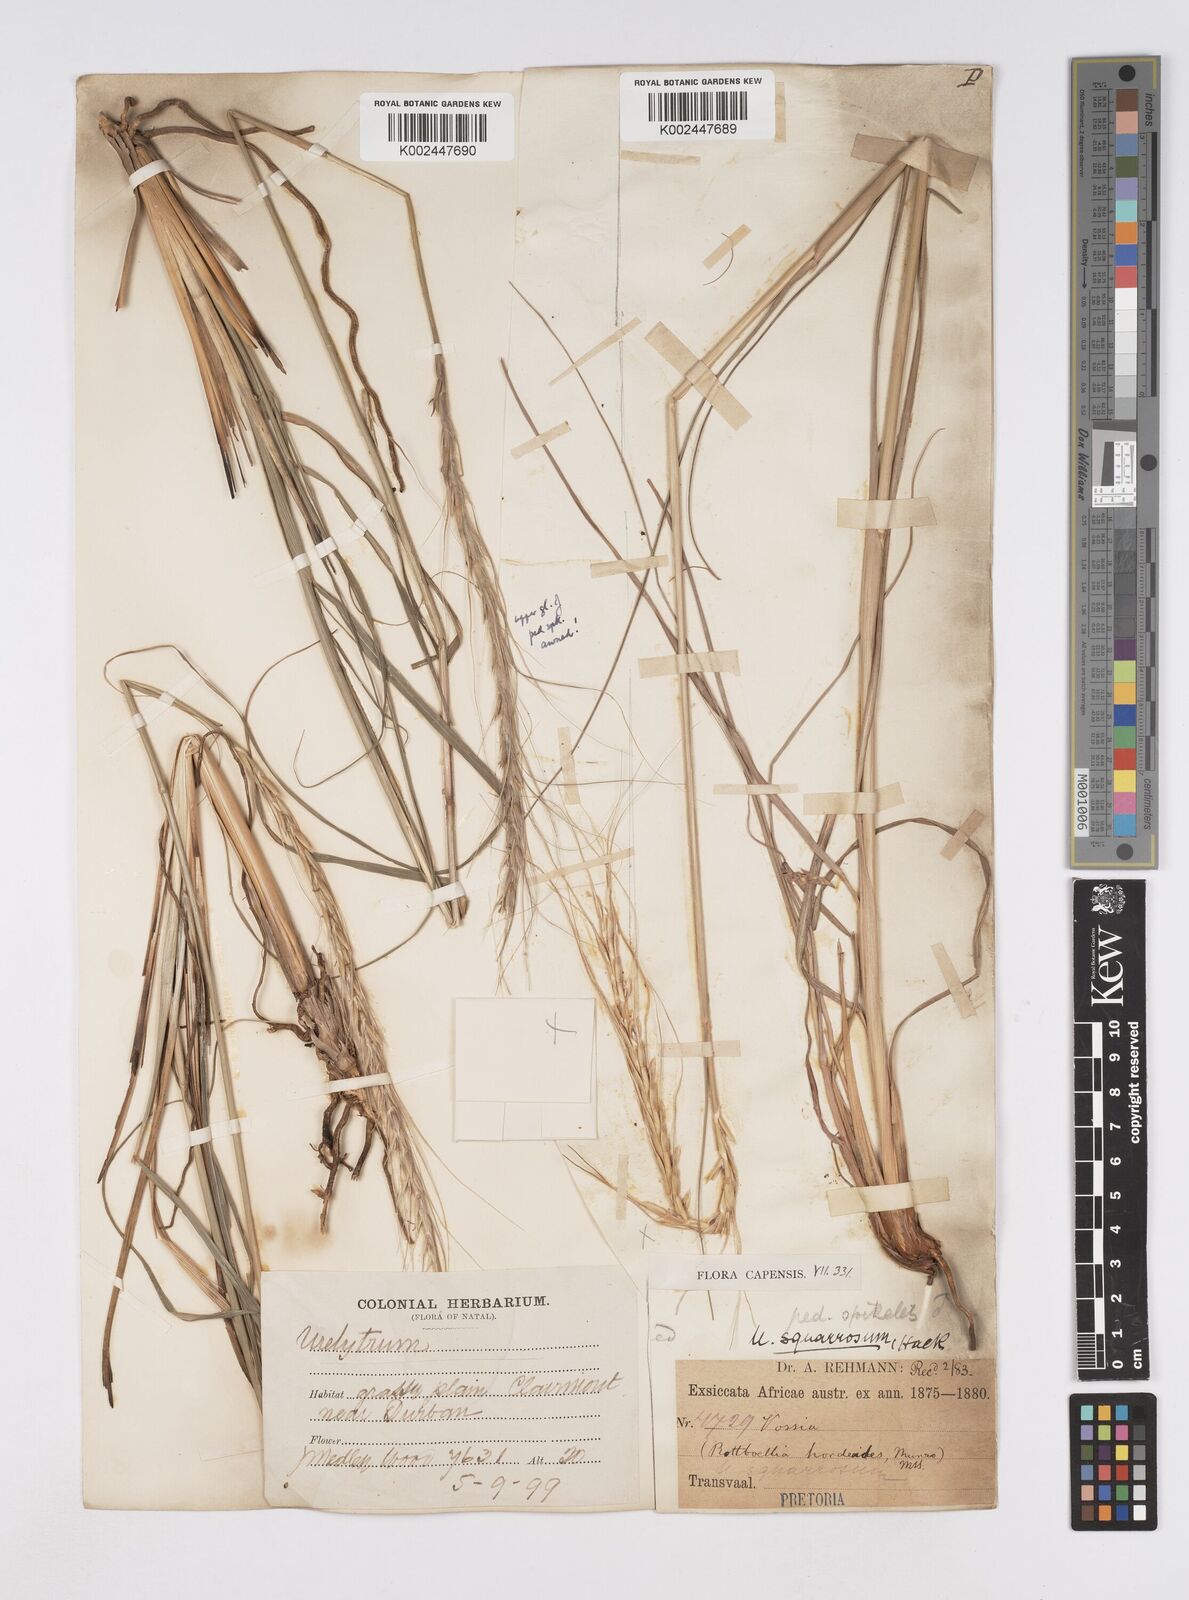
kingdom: Plantae
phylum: Tracheophyta
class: Liliopsida
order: Poales
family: Poaceae
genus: Urelytrum
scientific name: Urelytrum agropyroides
